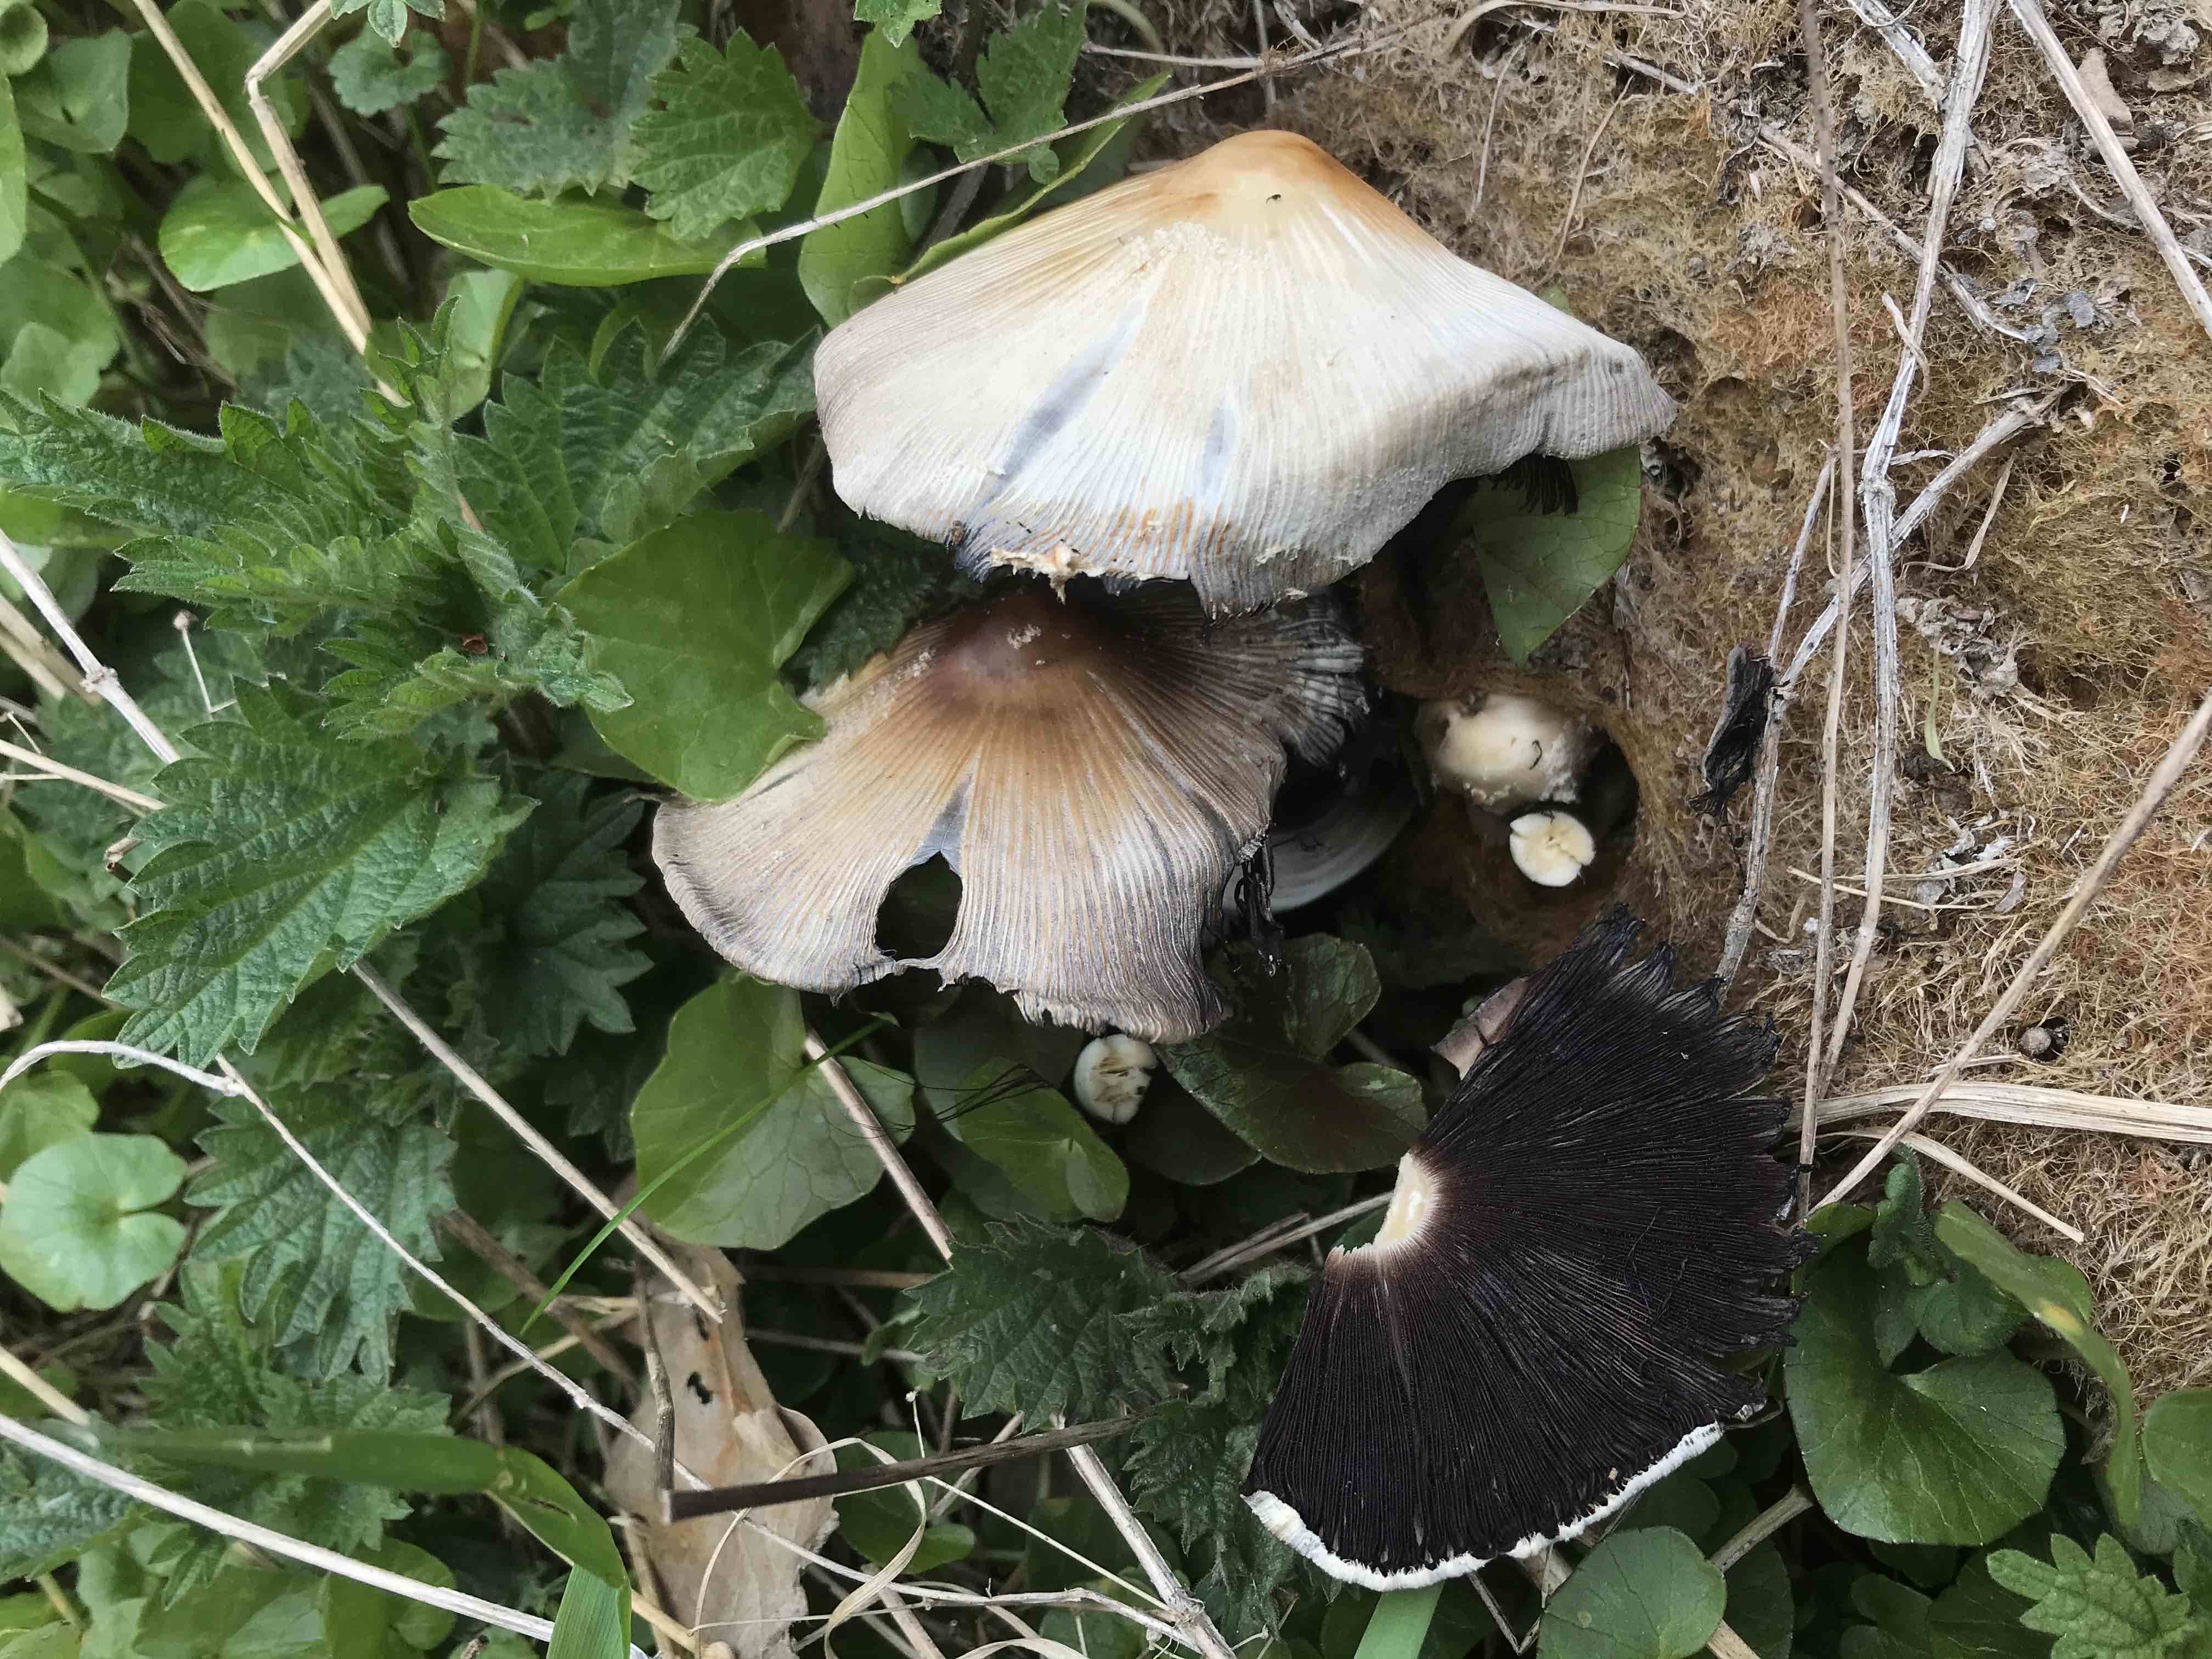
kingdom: Fungi
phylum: Basidiomycota
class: Agaricomycetes
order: Agaricales
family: Psathyrellaceae
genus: Coprinellus
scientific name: Coprinellus
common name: blækhat
